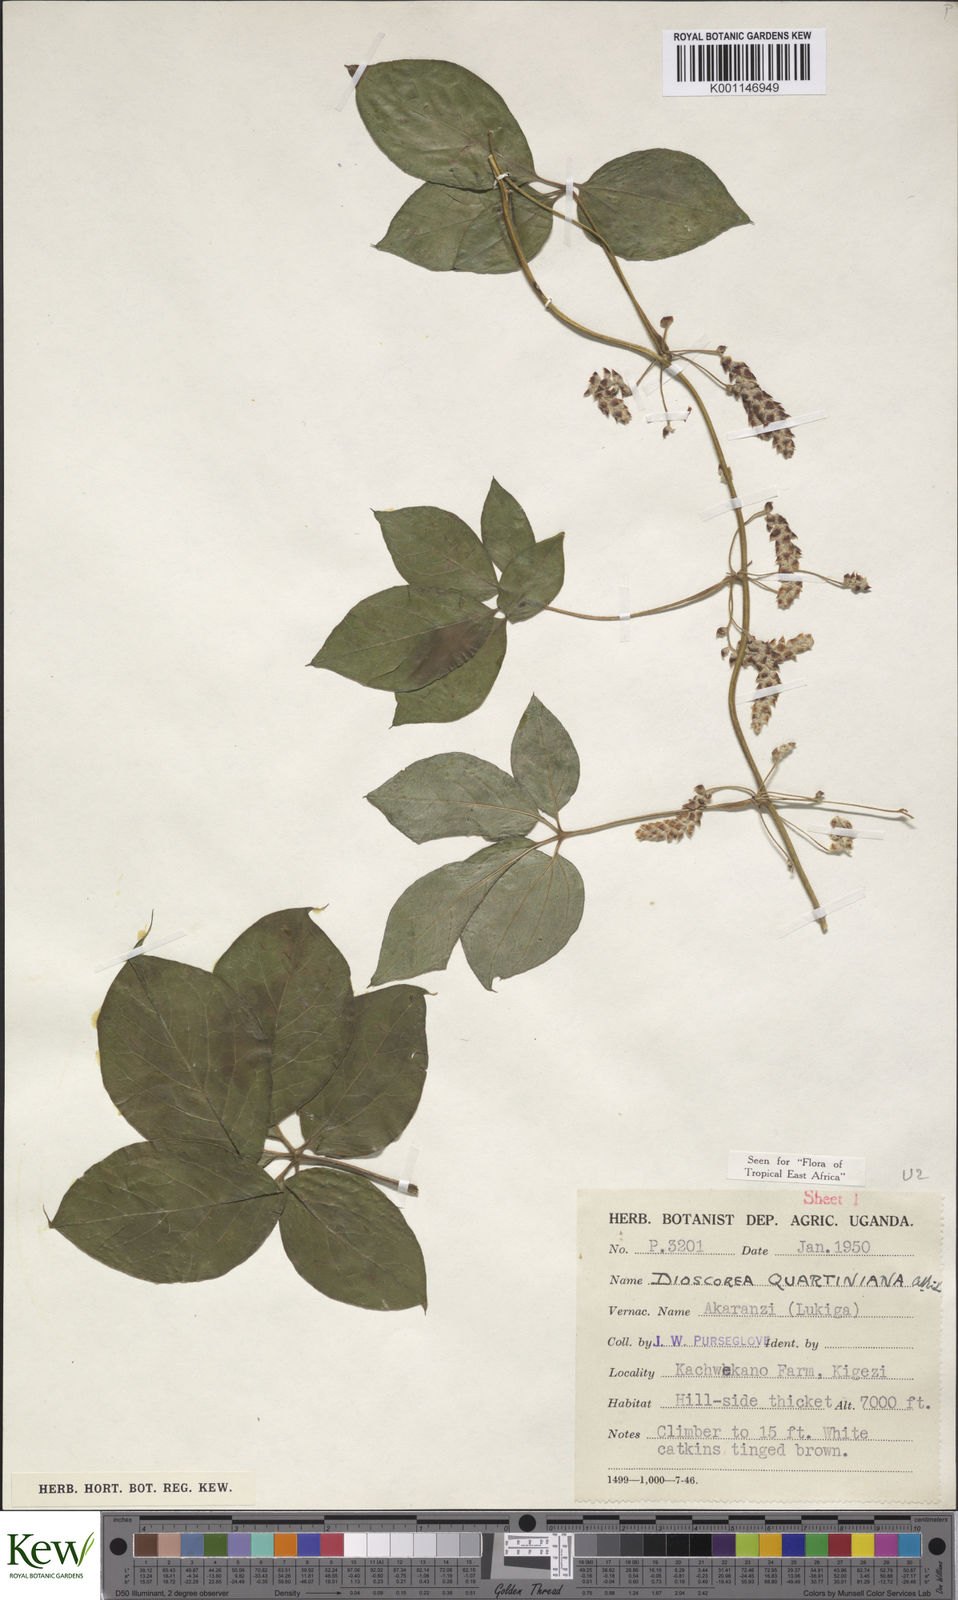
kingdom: Plantae
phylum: Tracheophyta
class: Liliopsida
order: Dioscoreales
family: Dioscoreaceae
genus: Dioscorea
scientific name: Dioscorea quartiniana
